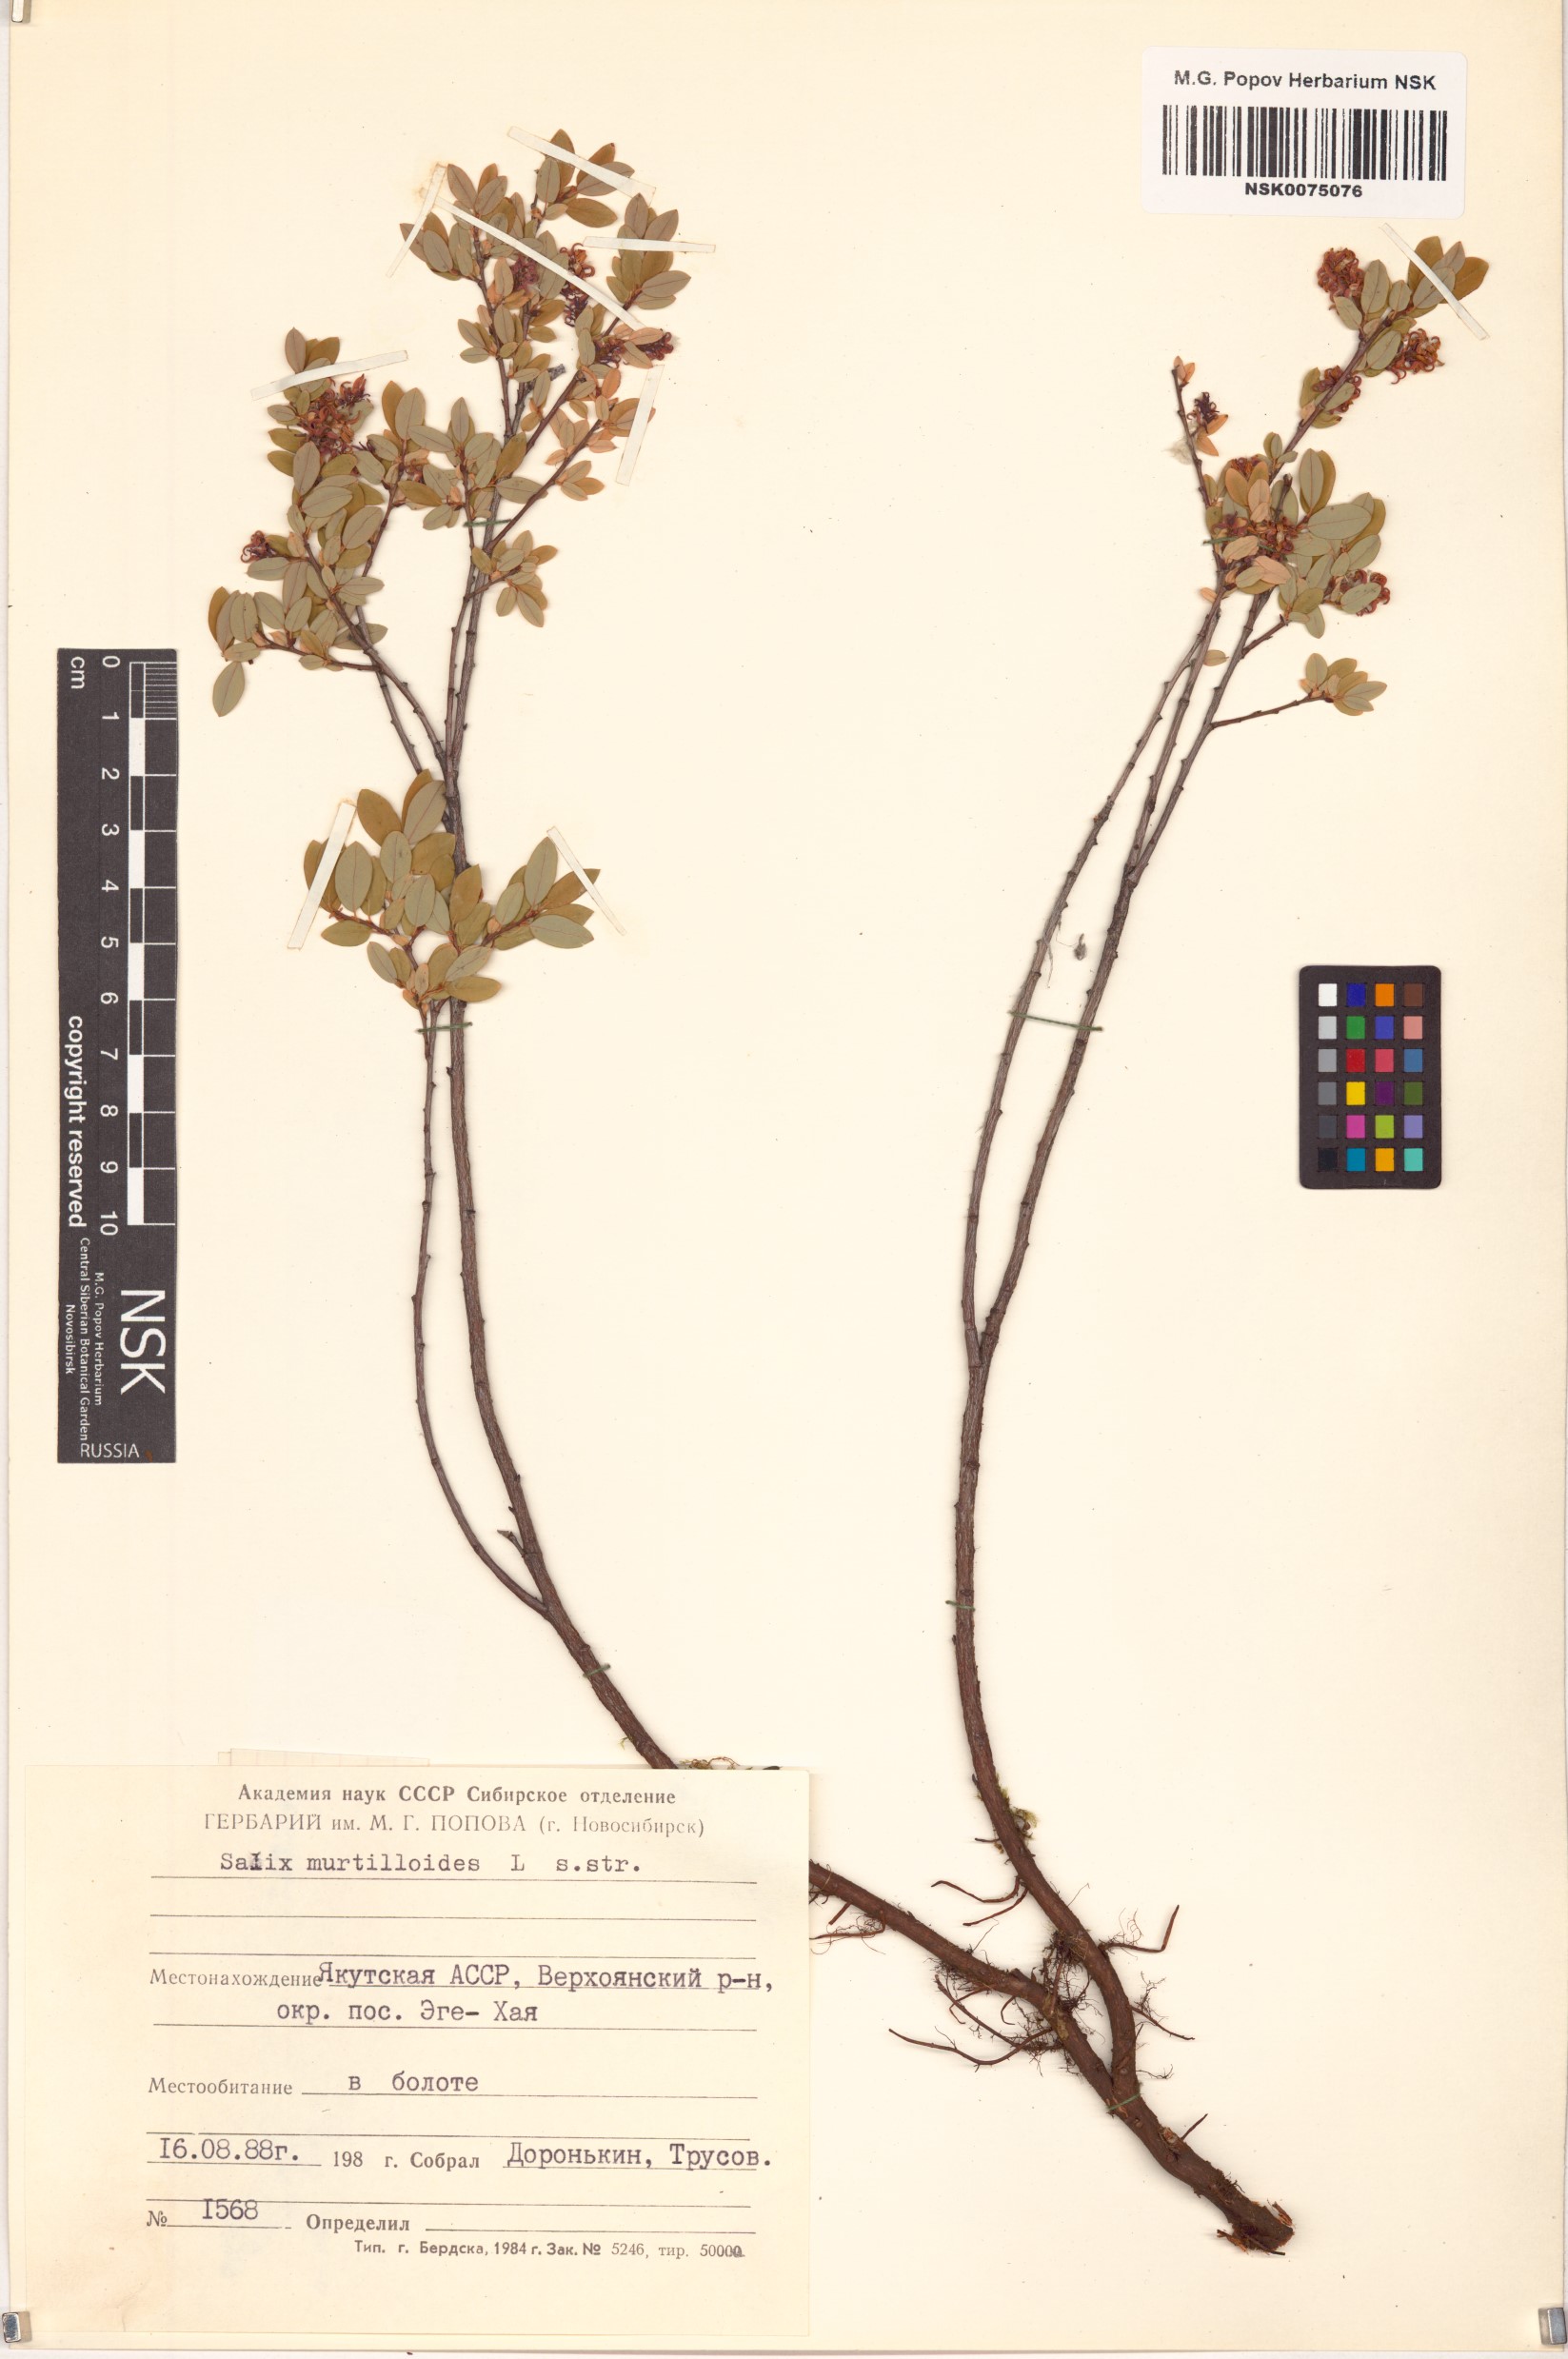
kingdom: Plantae
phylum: Tracheophyta
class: Magnoliopsida
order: Malpighiales
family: Salicaceae
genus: Salix
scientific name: Salix myrtilloides
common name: Myrtle-leaved willow
